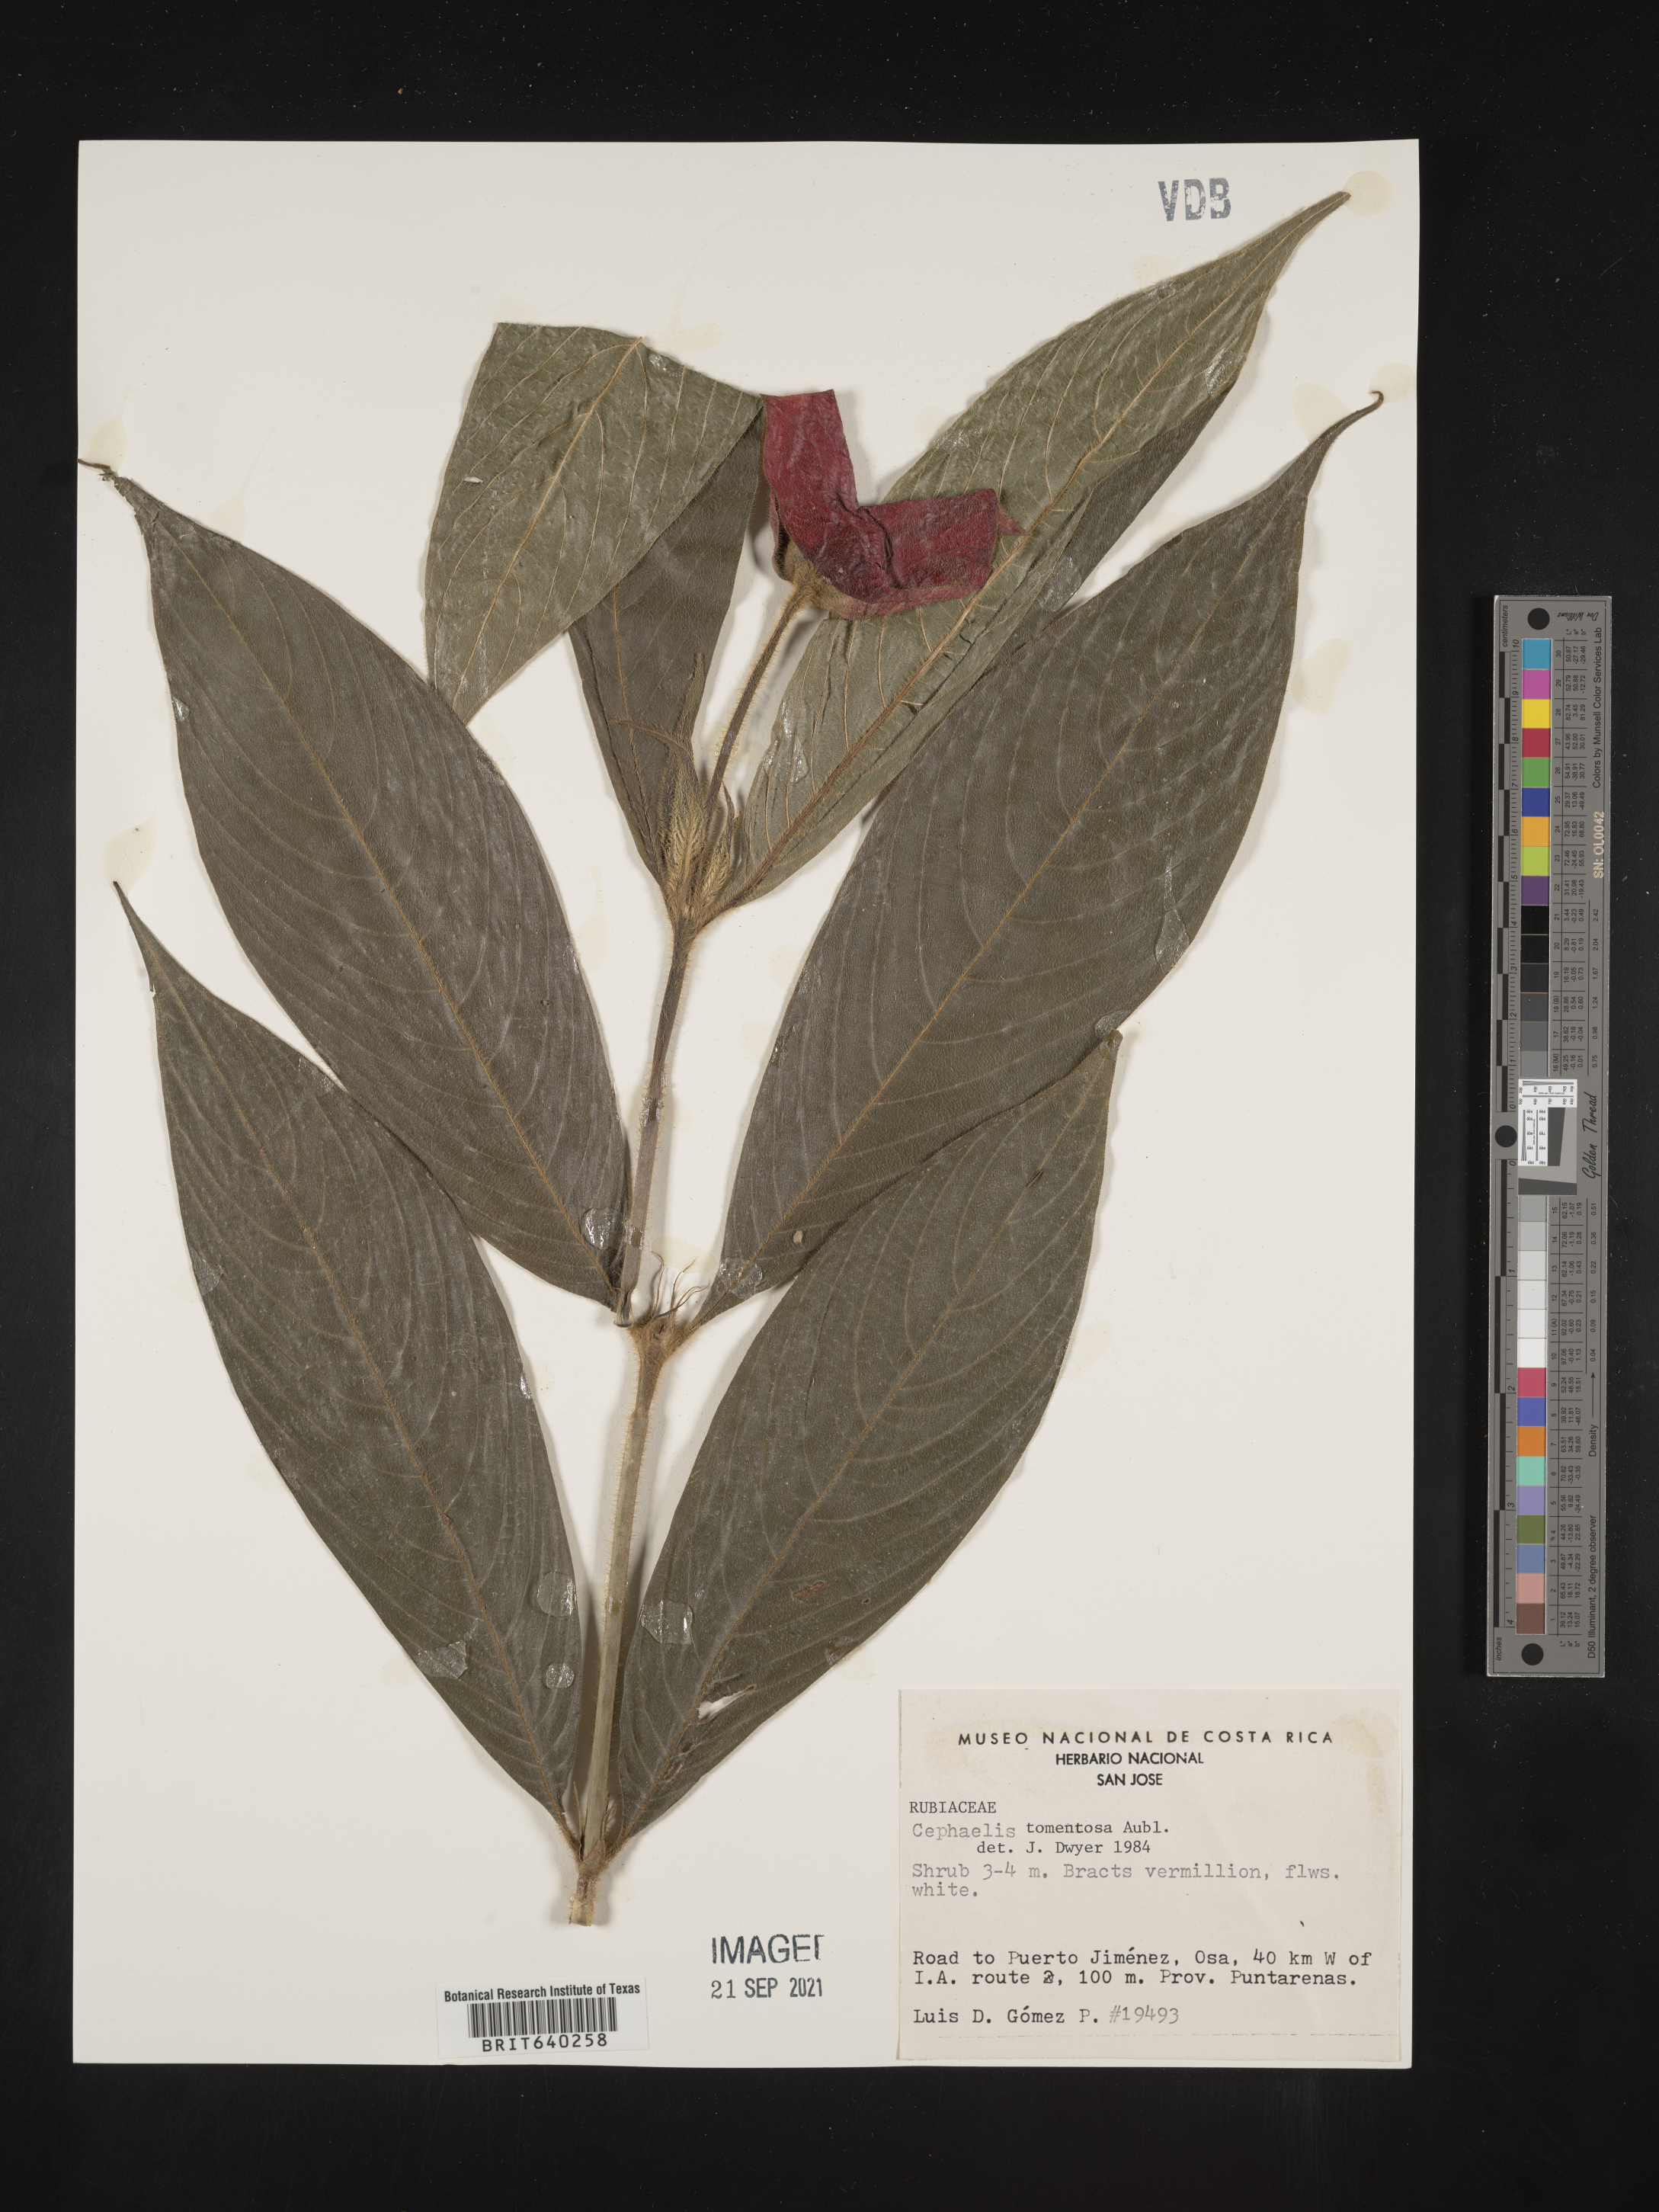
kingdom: Plantae
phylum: Tracheophyta
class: Magnoliopsida
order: Gentianales
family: Rubiaceae
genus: Psychotria
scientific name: Psychotria
